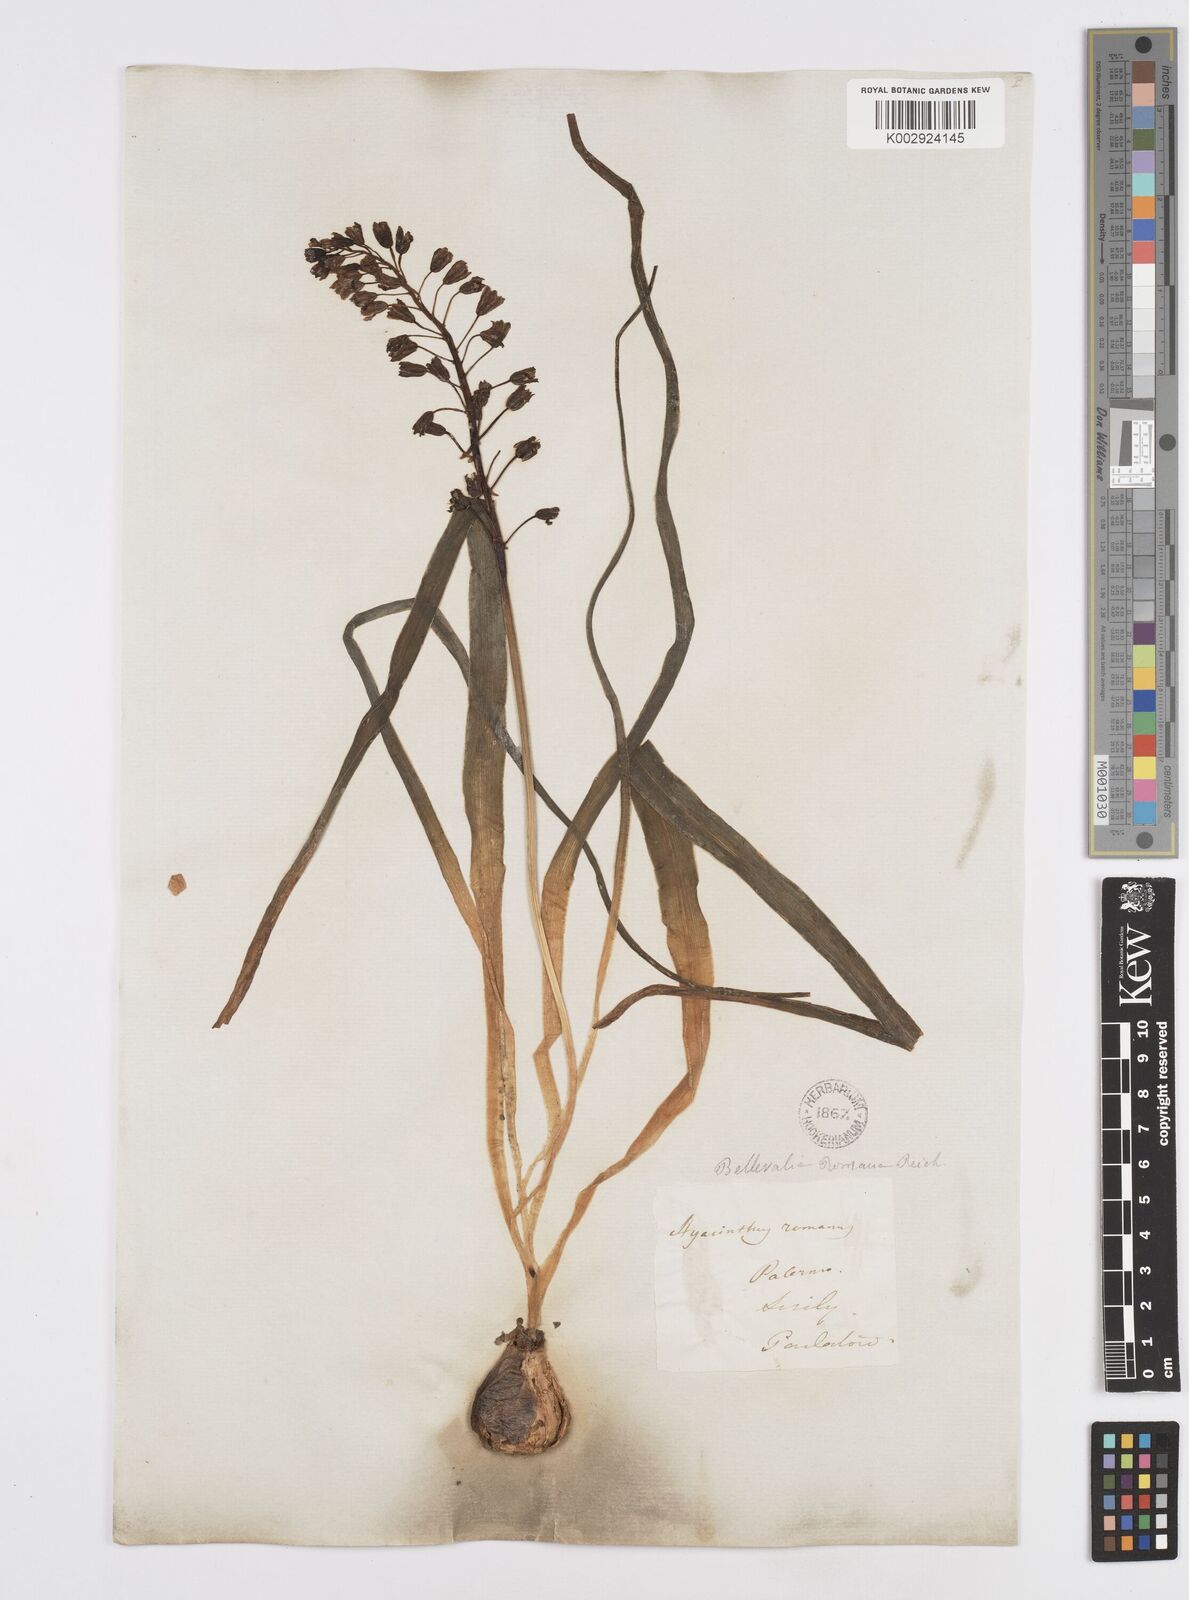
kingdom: Plantae
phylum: Tracheophyta
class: Liliopsida
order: Asparagales
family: Asparagaceae
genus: Bellevalia
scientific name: Bellevalia
